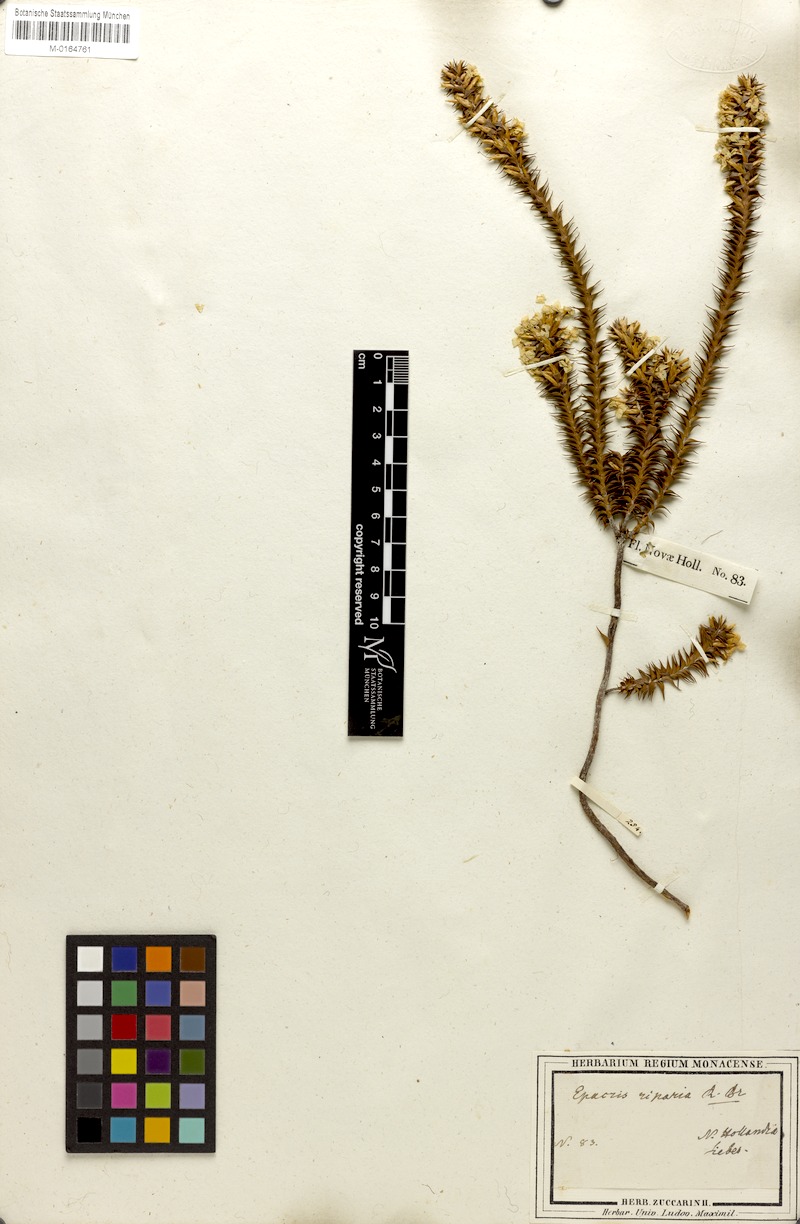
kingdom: Plantae
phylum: Tracheophyta
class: Magnoliopsida
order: Ericales
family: Ericaceae
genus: Epacris
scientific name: Epacris pulchella
